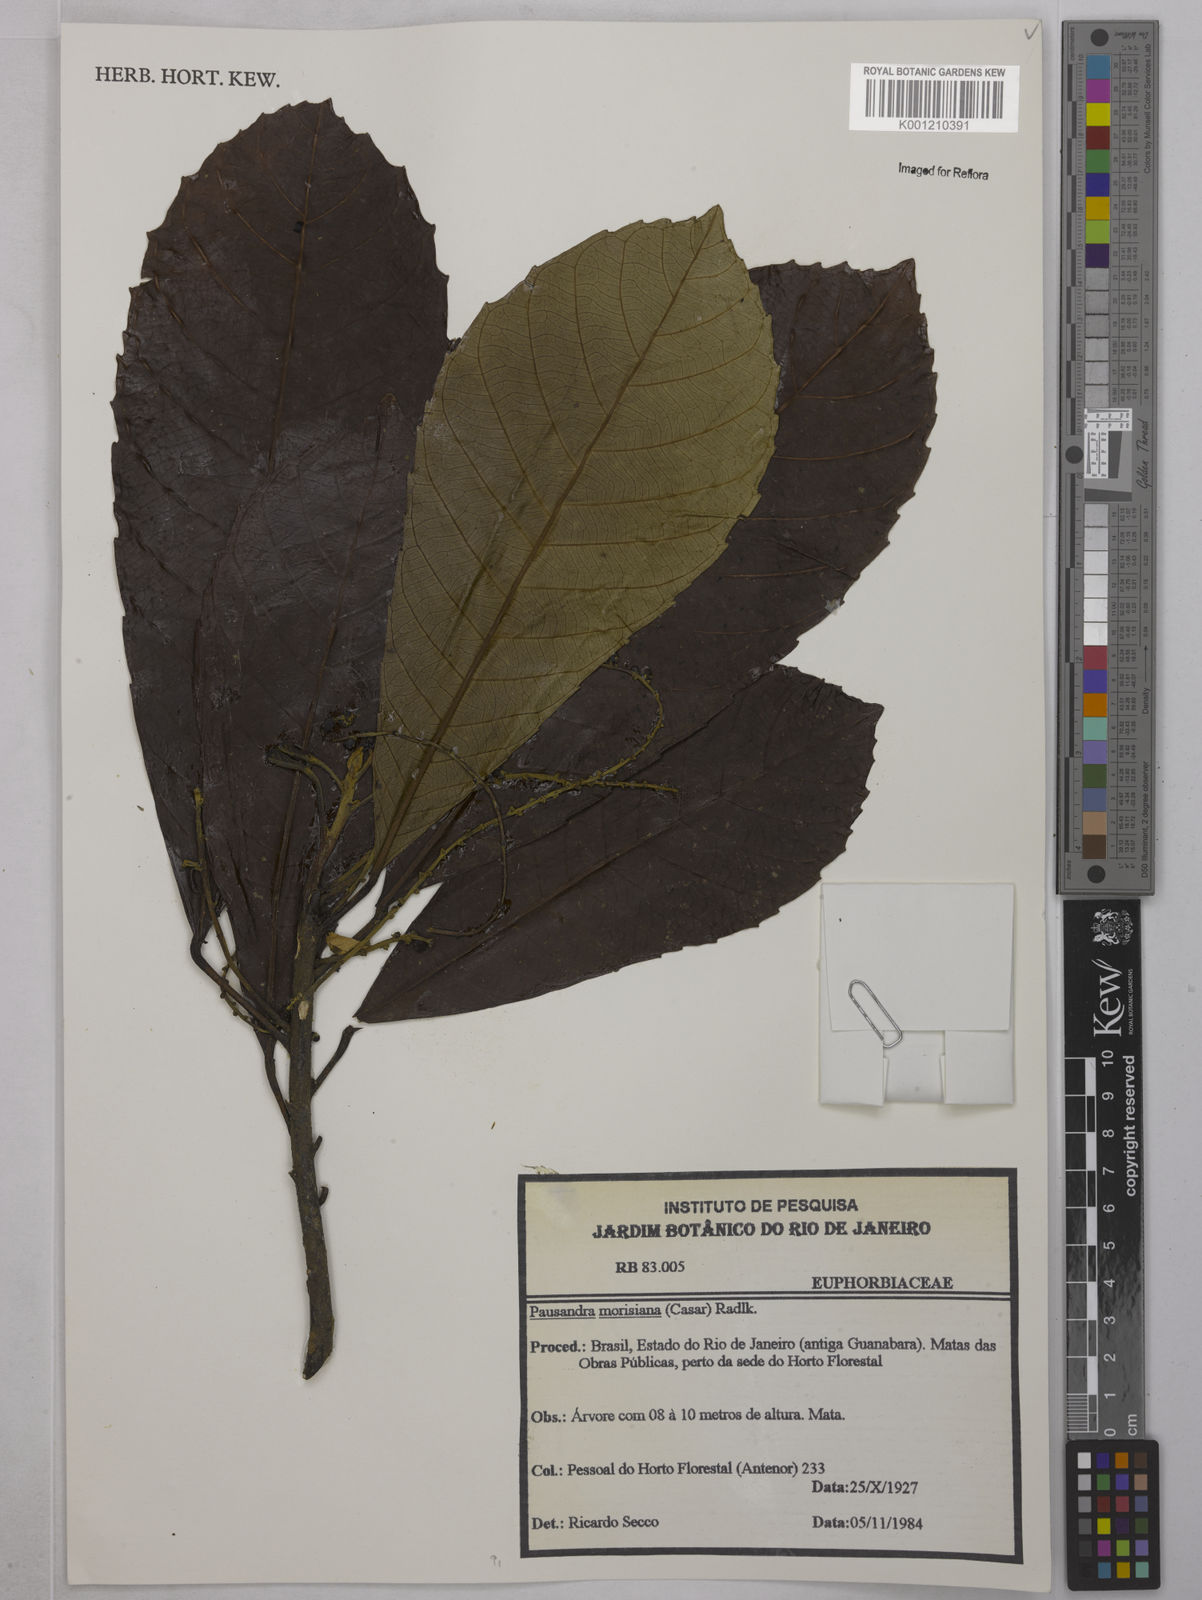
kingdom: Plantae
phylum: Tracheophyta
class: Magnoliopsida
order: Malpighiales
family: Euphorbiaceae
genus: Pausandra
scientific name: Pausandra morisiana
